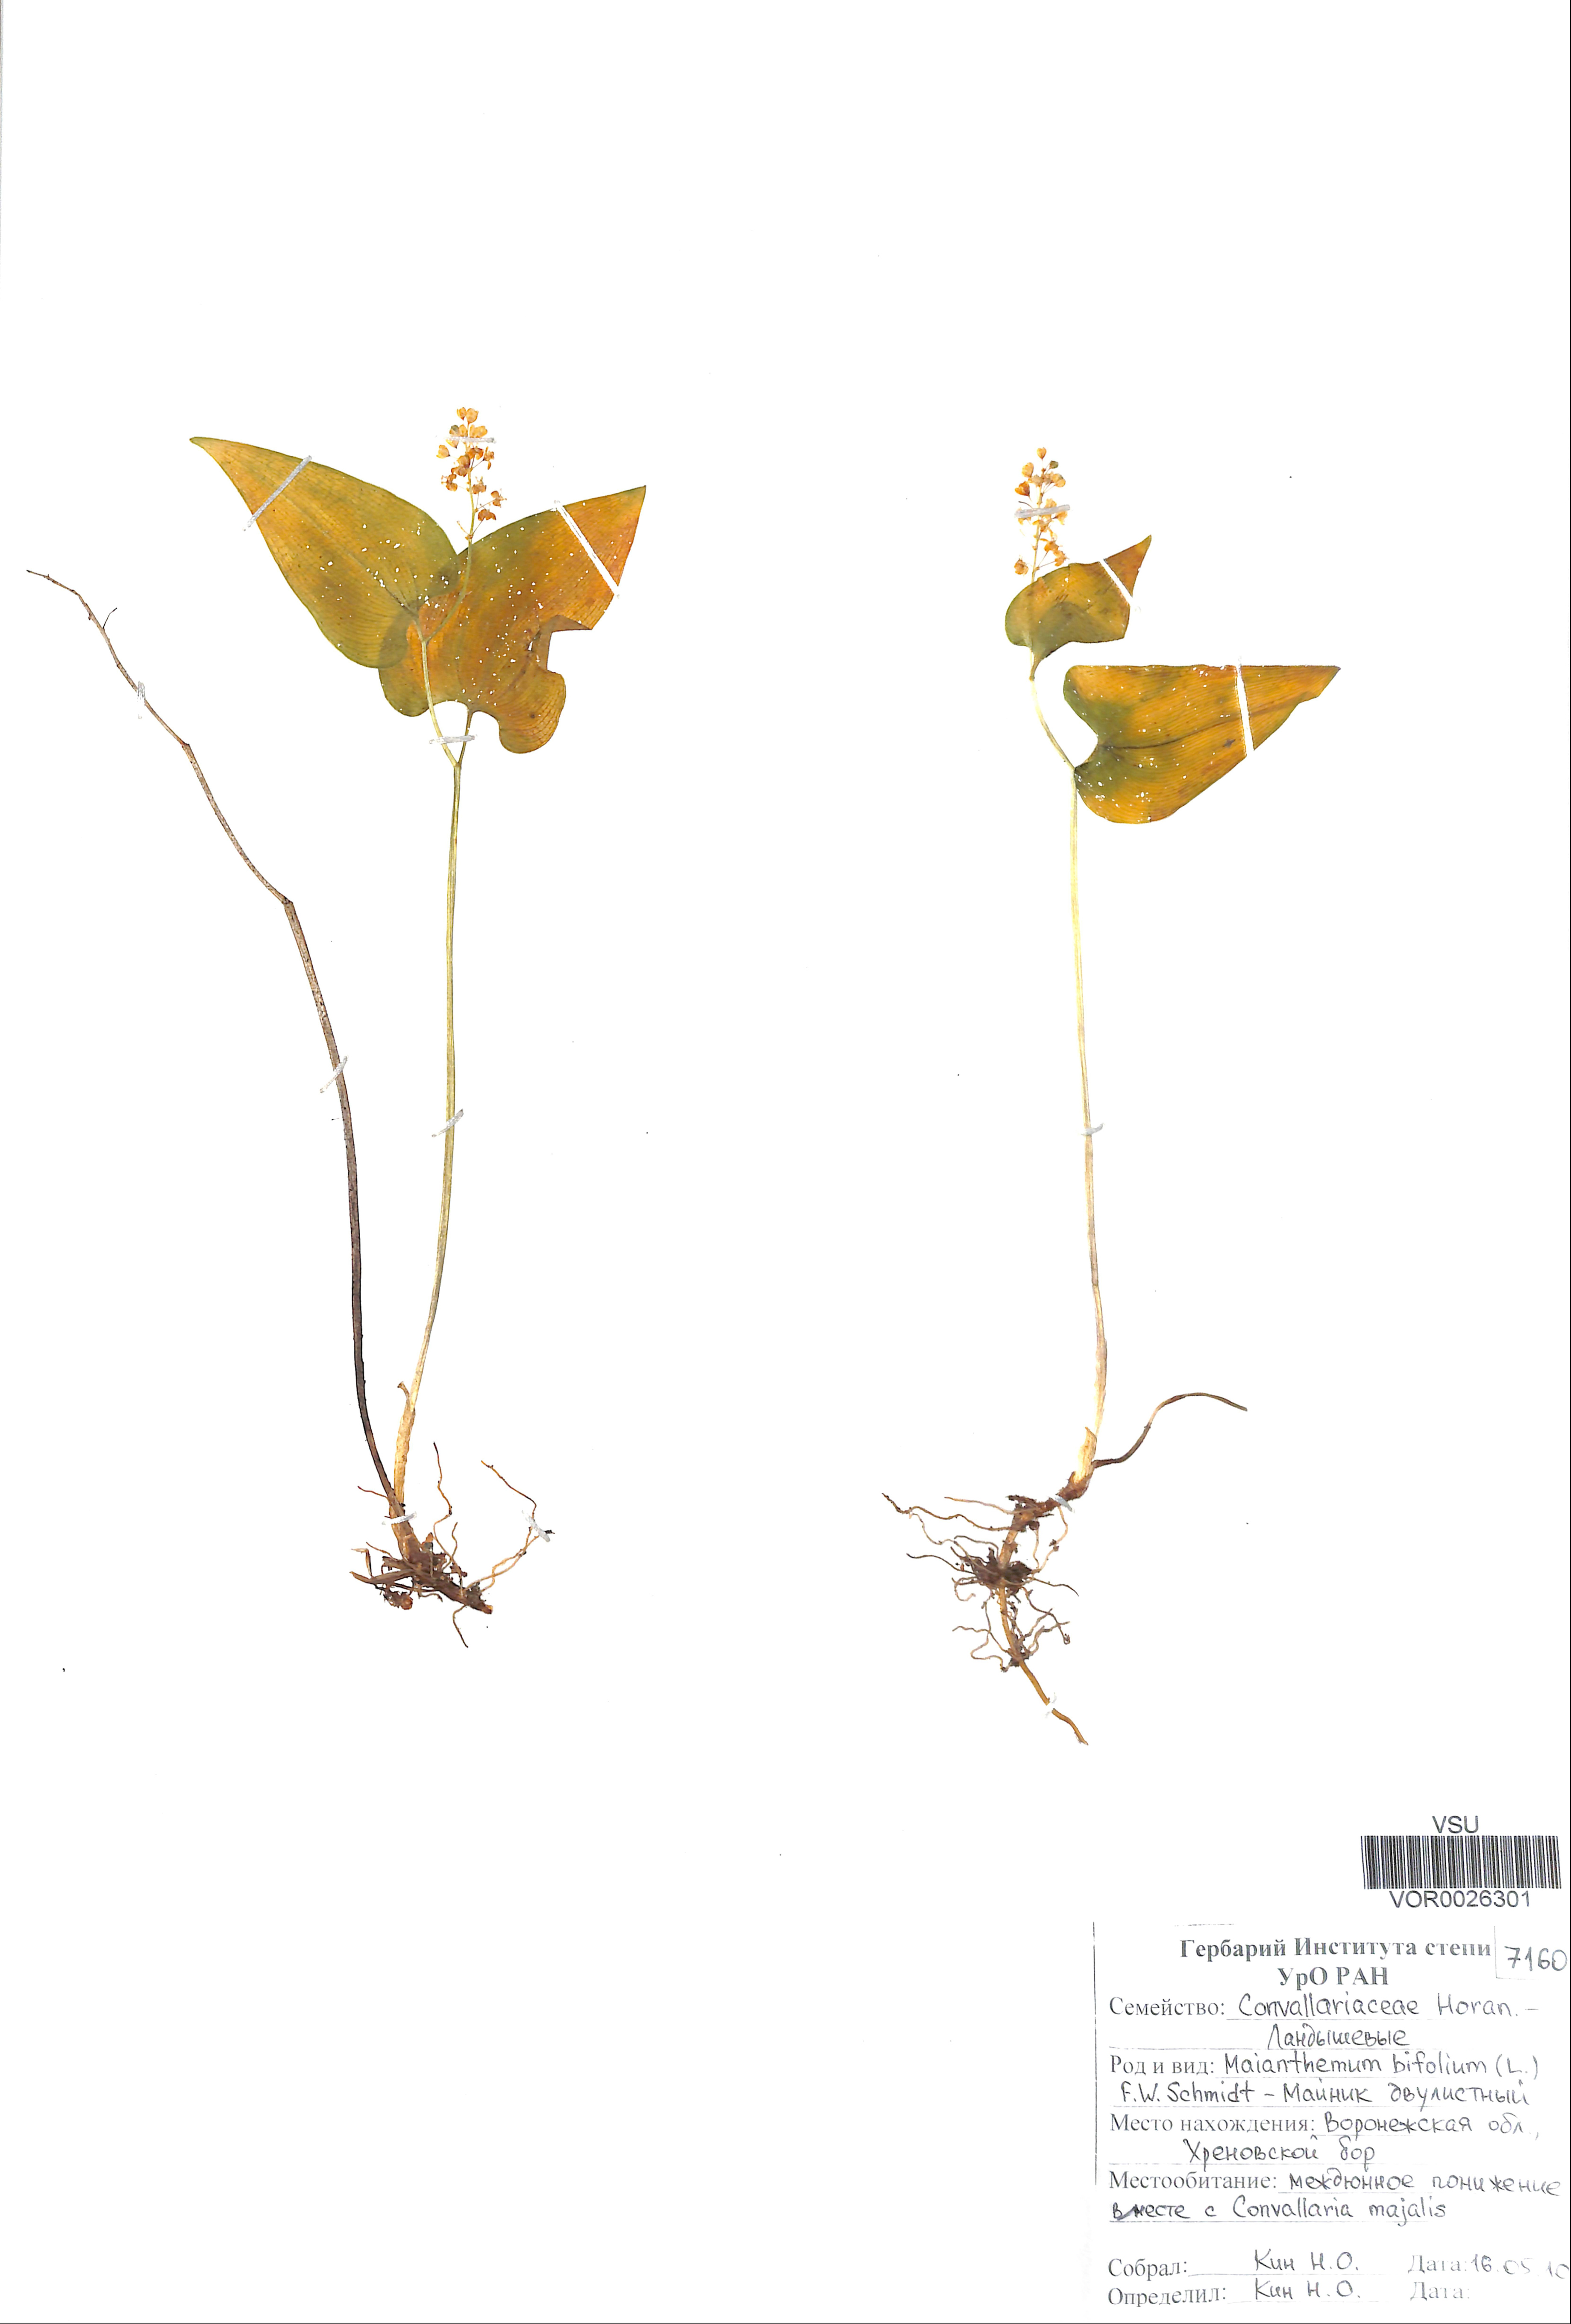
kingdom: Plantae
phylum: Tracheophyta
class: Liliopsida
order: Asparagales
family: Asparagaceae
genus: Maianthemum
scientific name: Maianthemum bifolium
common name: May lily
